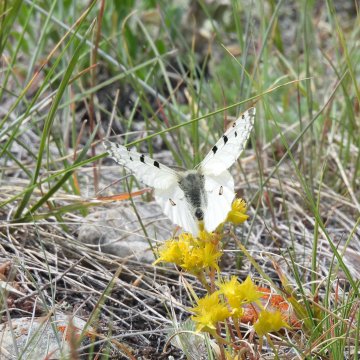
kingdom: Animalia
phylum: Arthropoda
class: Insecta
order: Lepidoptera
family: Papilionidae
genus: Parnassius
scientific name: Parnassius smintheus
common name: Rocky Mountain Parnassian
